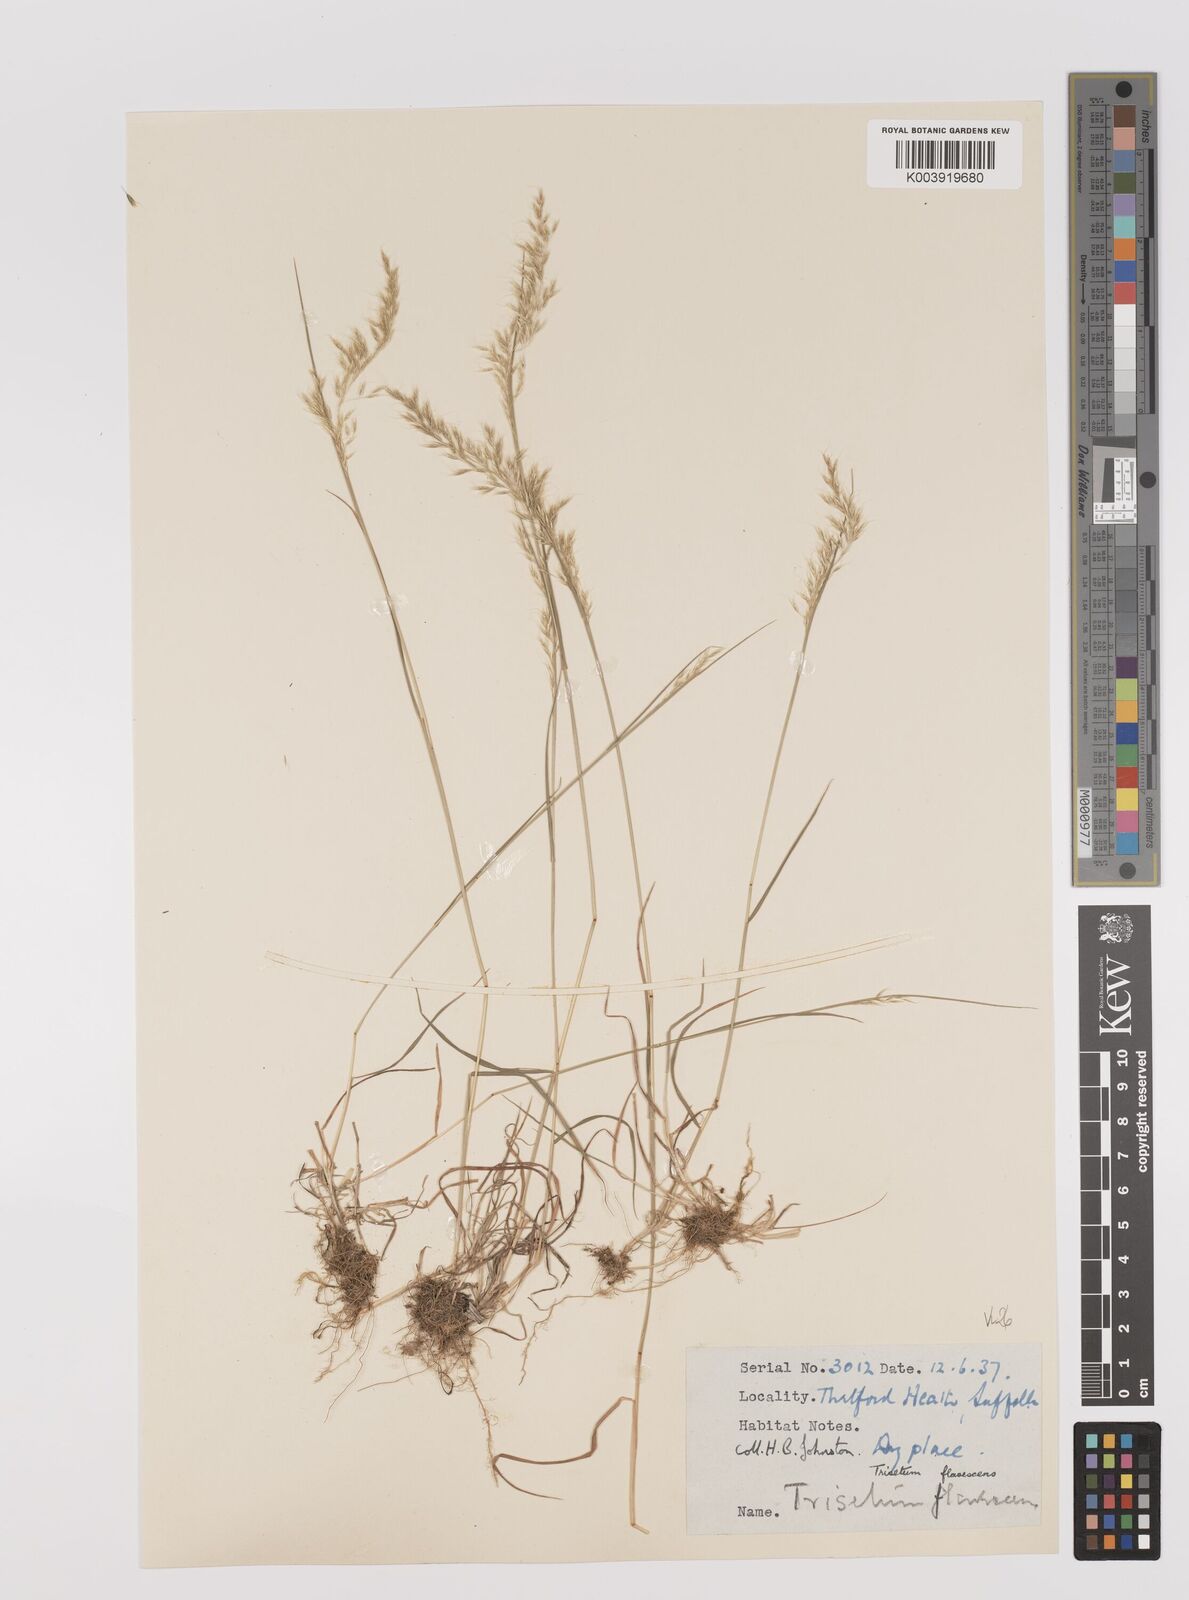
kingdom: Plantae
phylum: Tracheophyta
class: Liliopsida
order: Poales
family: Poaceae
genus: Trisetum
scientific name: Trisetum flavescens
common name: Yellow oat-grass
